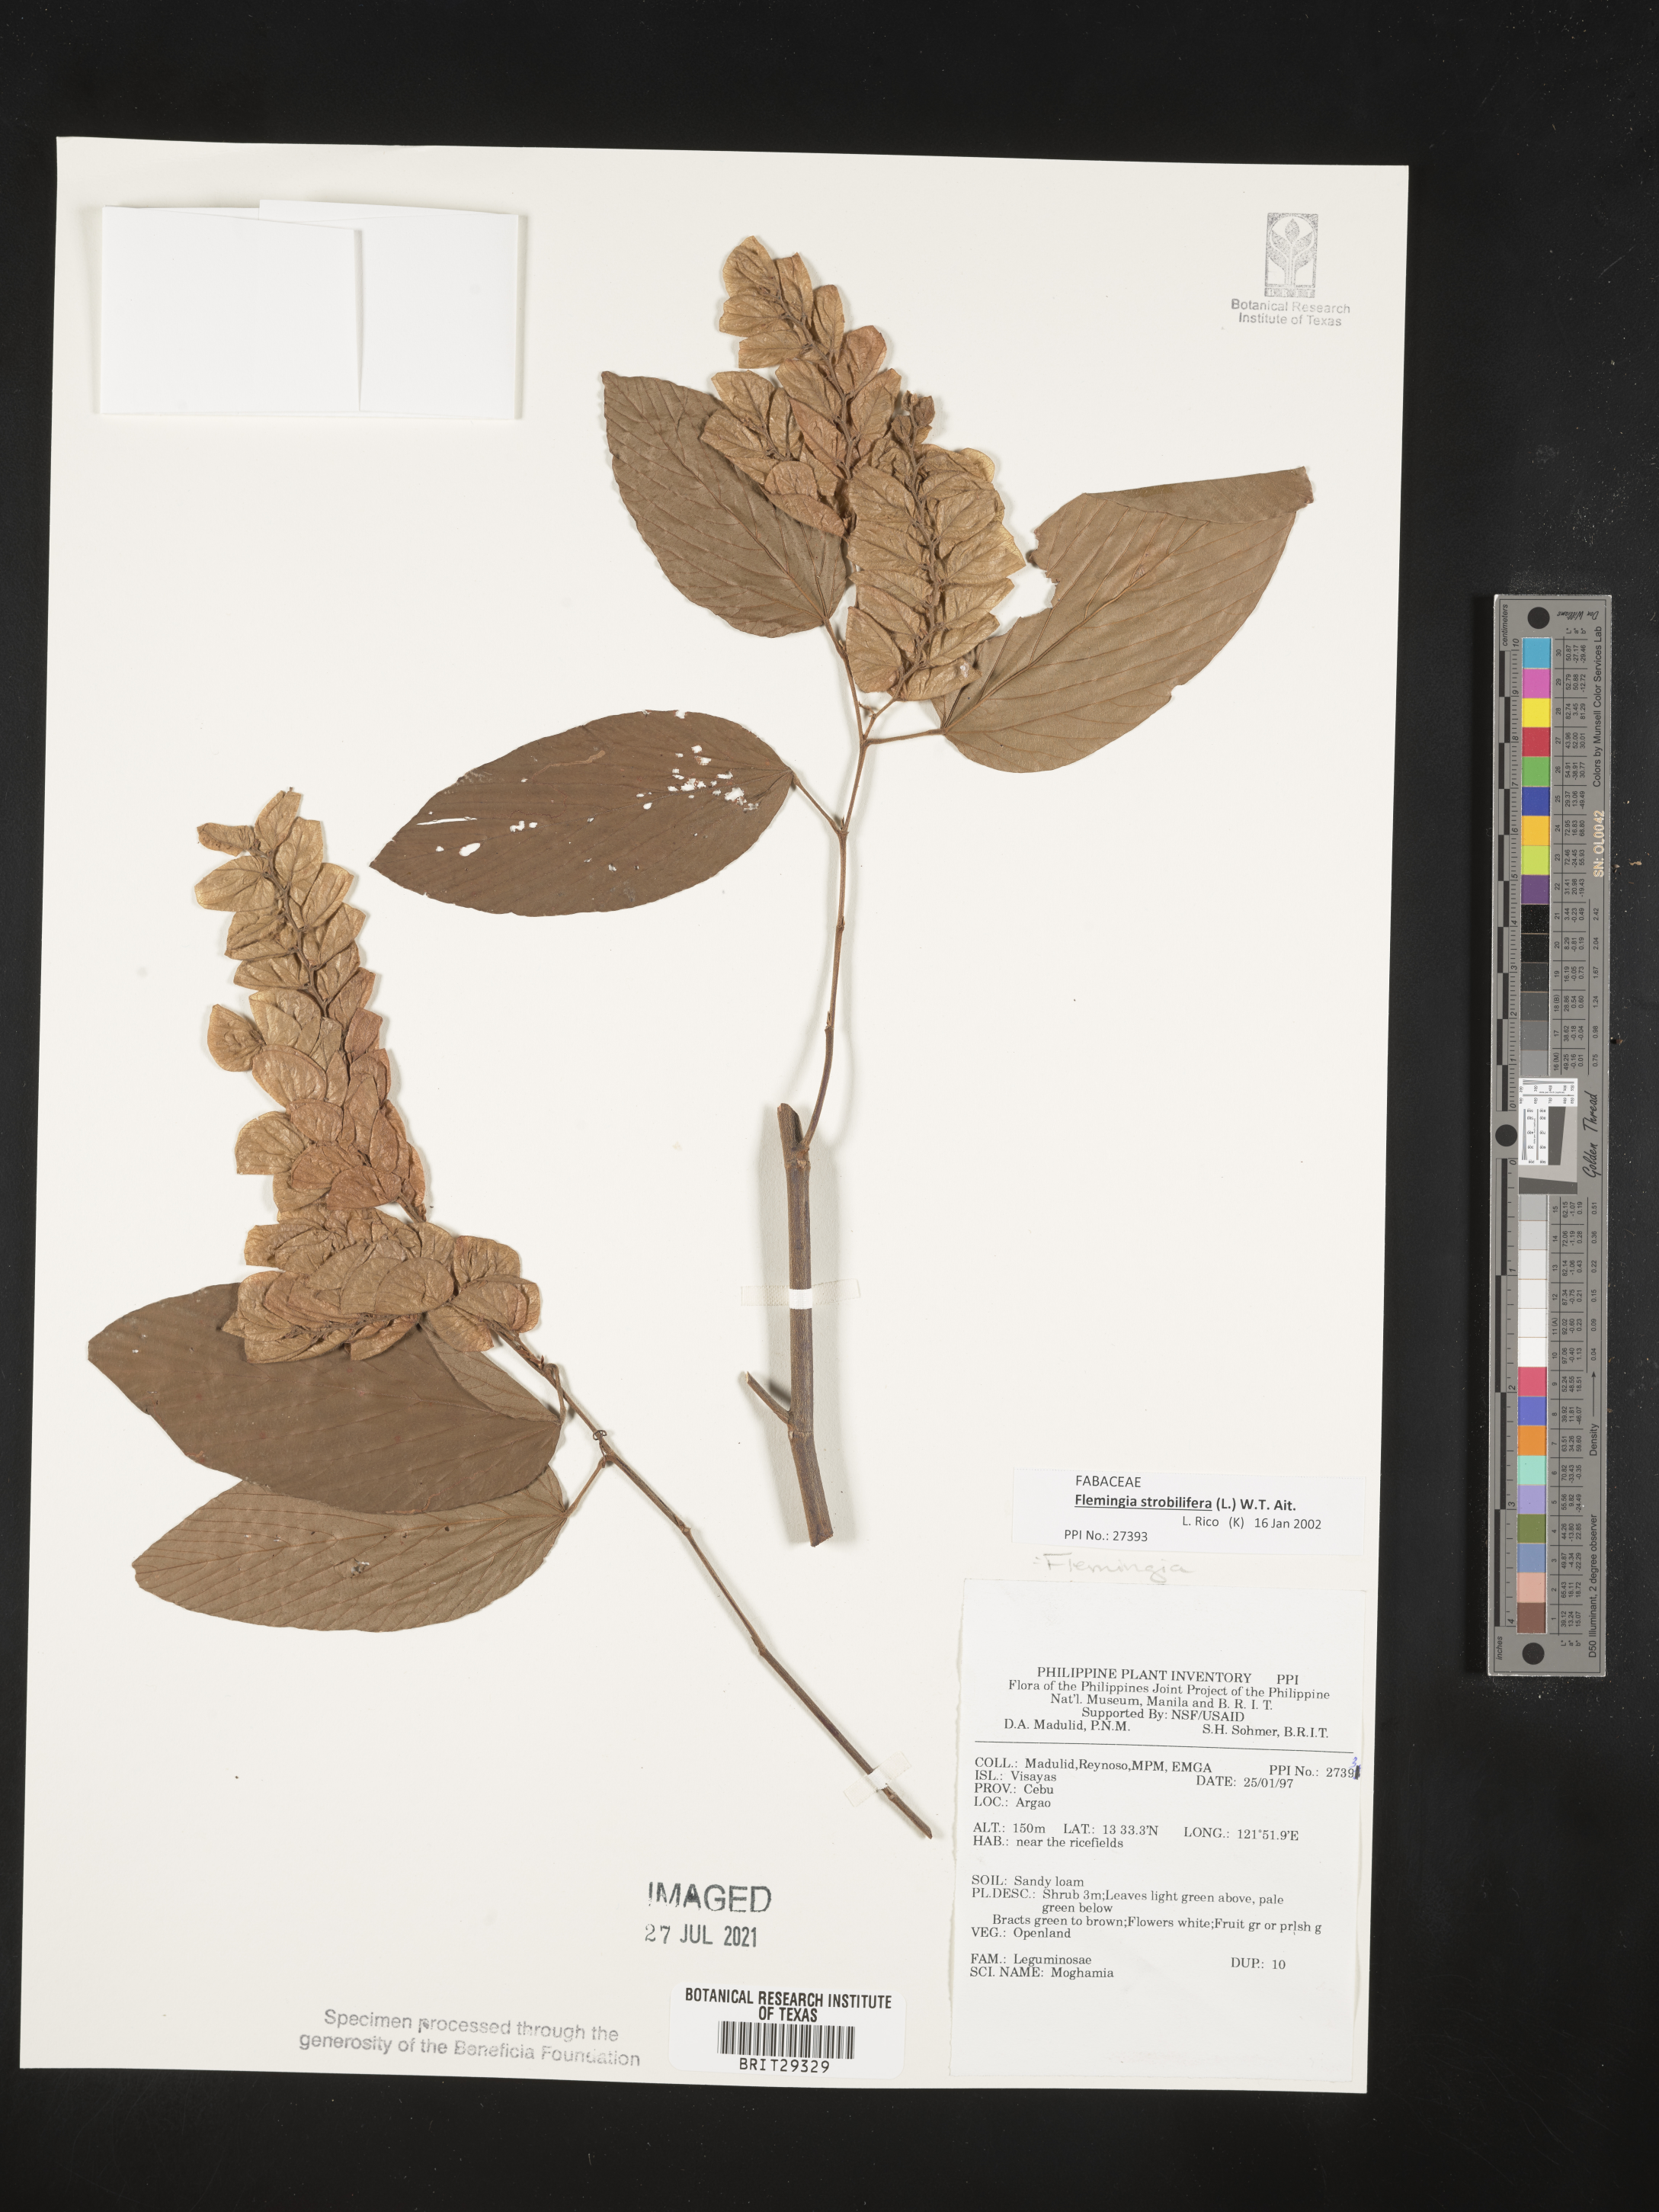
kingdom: Plantae
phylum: Tracheophyta
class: Magnoliopsida
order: Fabales
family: Fabaceae
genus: Flemingia
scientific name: Flemingia strobilifera
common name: Wild hops
